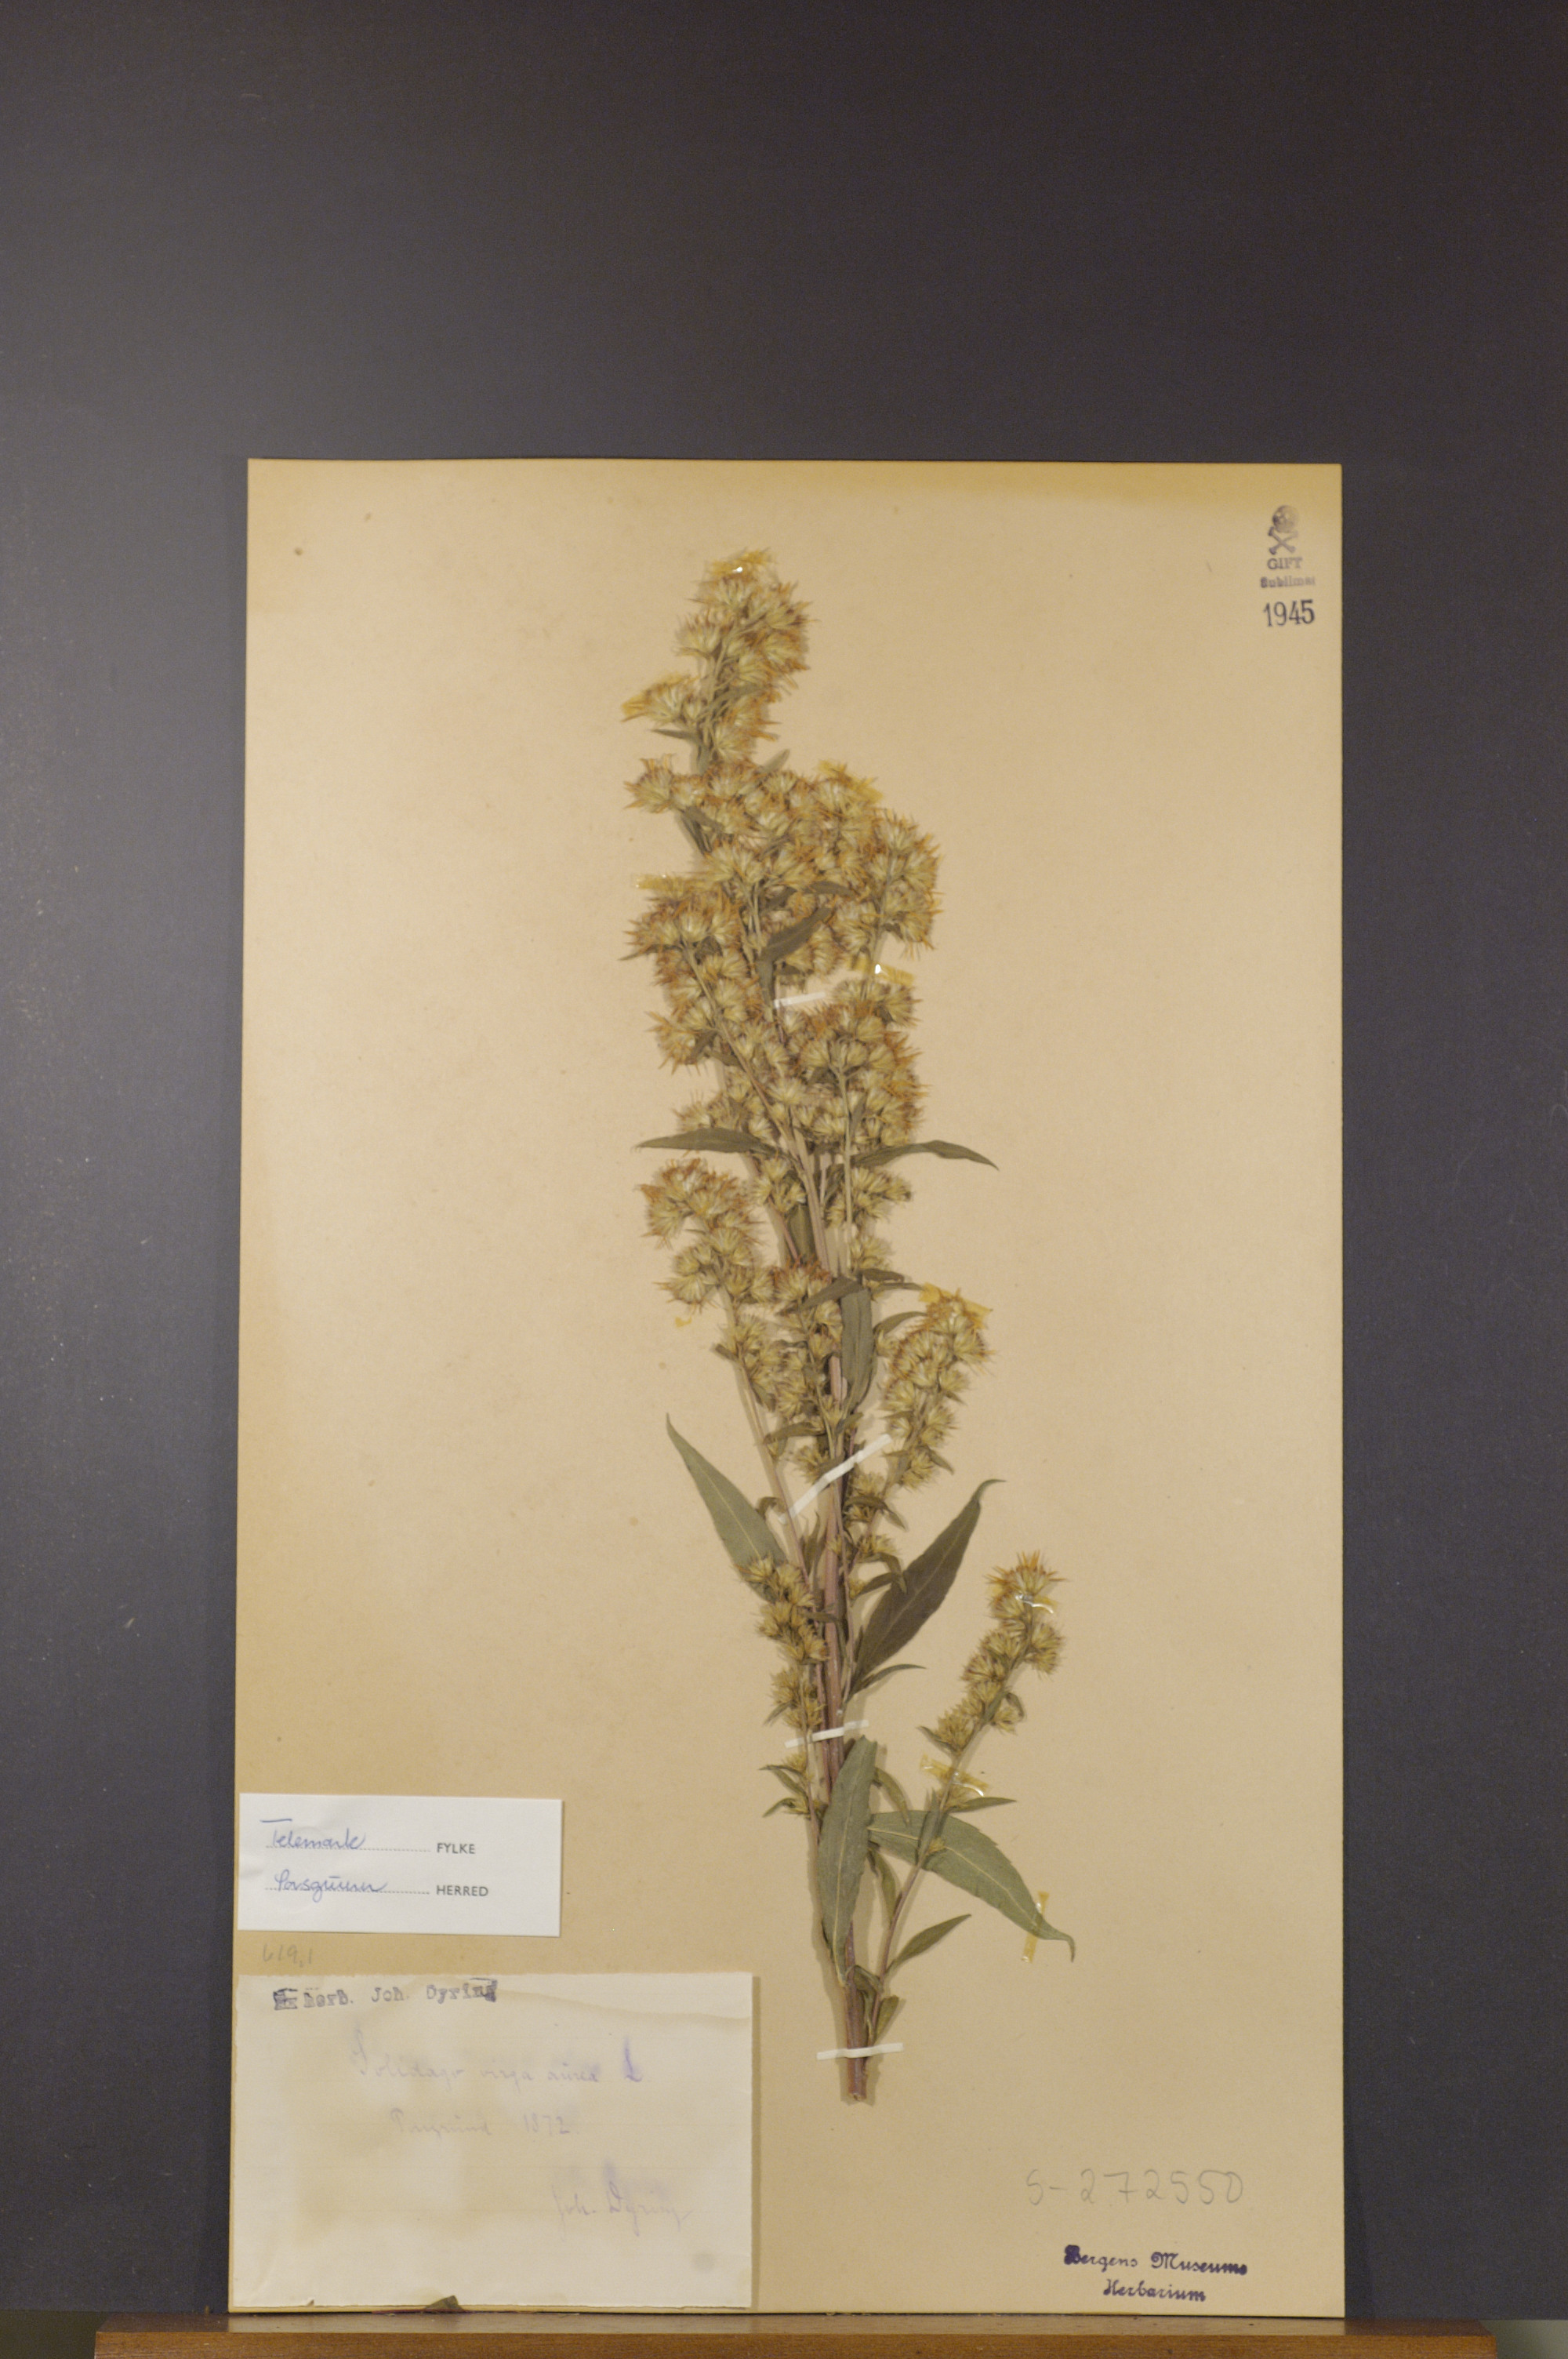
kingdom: Plantae
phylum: Tracheophyta
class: Magnoliopsida
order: Asterales
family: Asteraceae
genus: Solidago
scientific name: Solidago virgaurea
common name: Goldenrod
